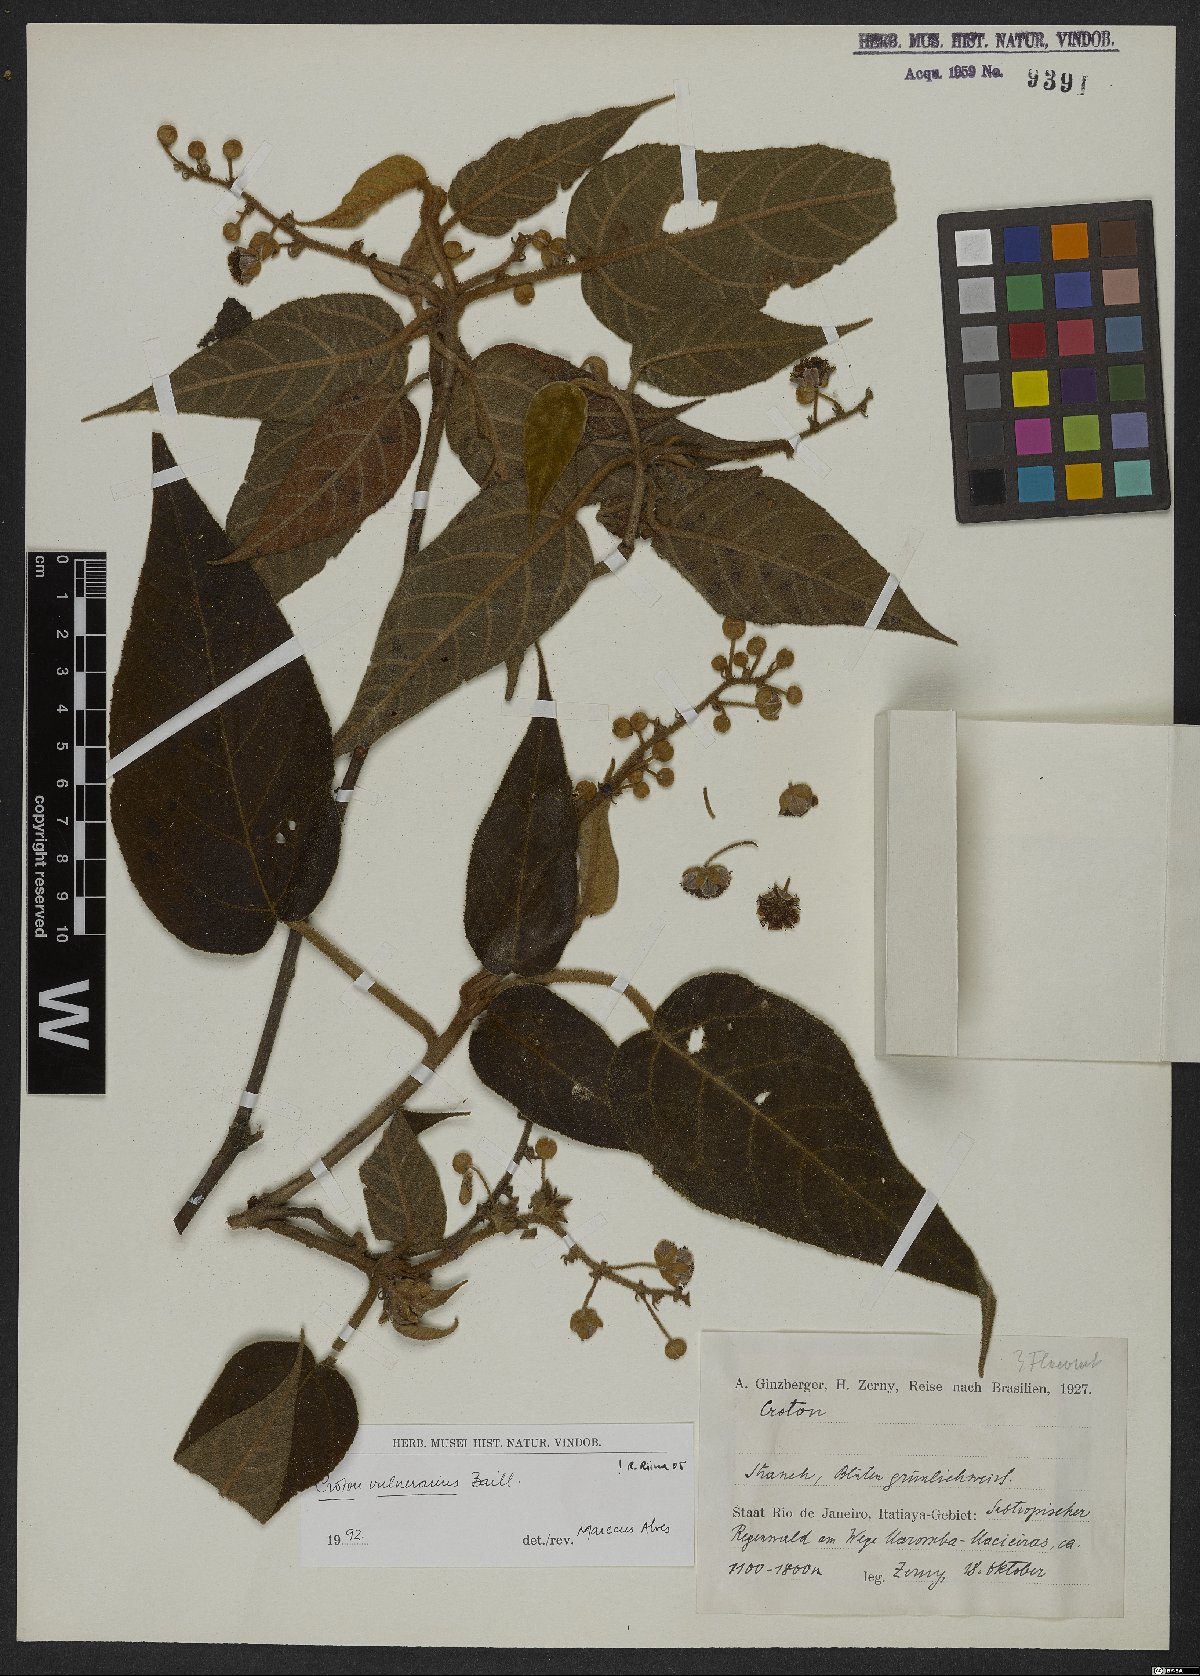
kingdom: Plantae
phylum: Tracheophyta
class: Magnoliopsida
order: Malpighiales
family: Euphorbiaceae
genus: Croton
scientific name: Croton vulnerarius
